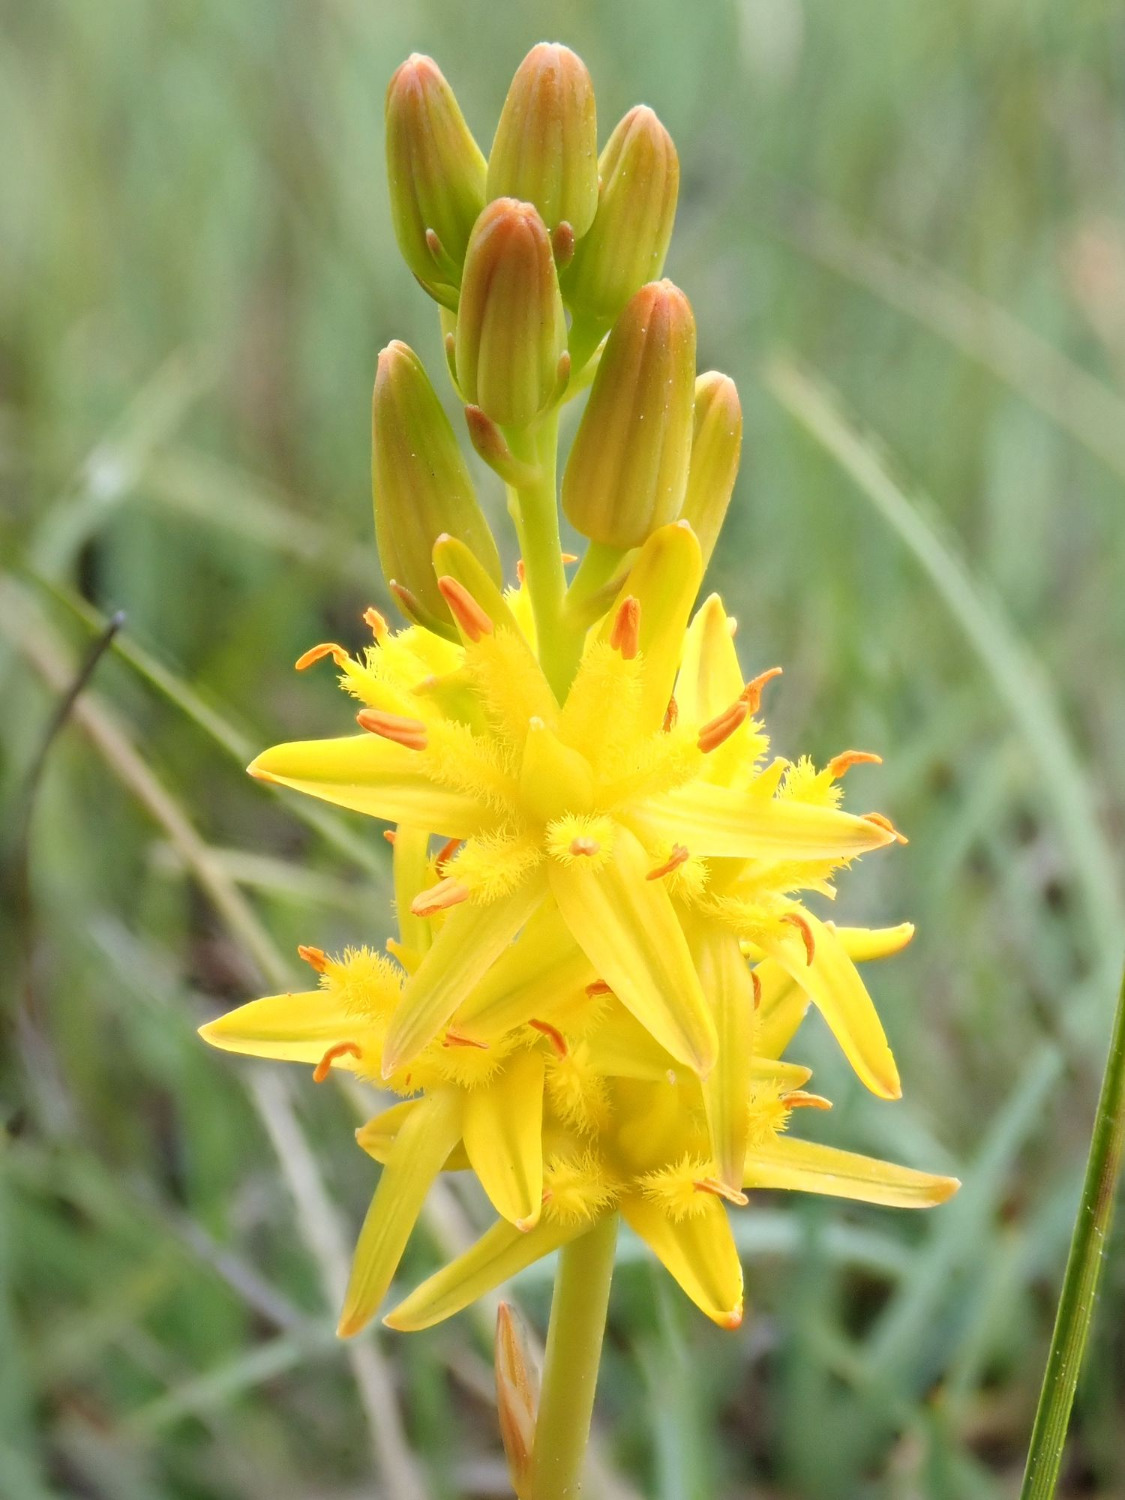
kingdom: Plantae
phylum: Tracheophyta
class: Liliopsida
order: Dioscoreales
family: Nartheciaceae
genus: Narthecium
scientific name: Narthecium ossifragum
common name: Benbræk
